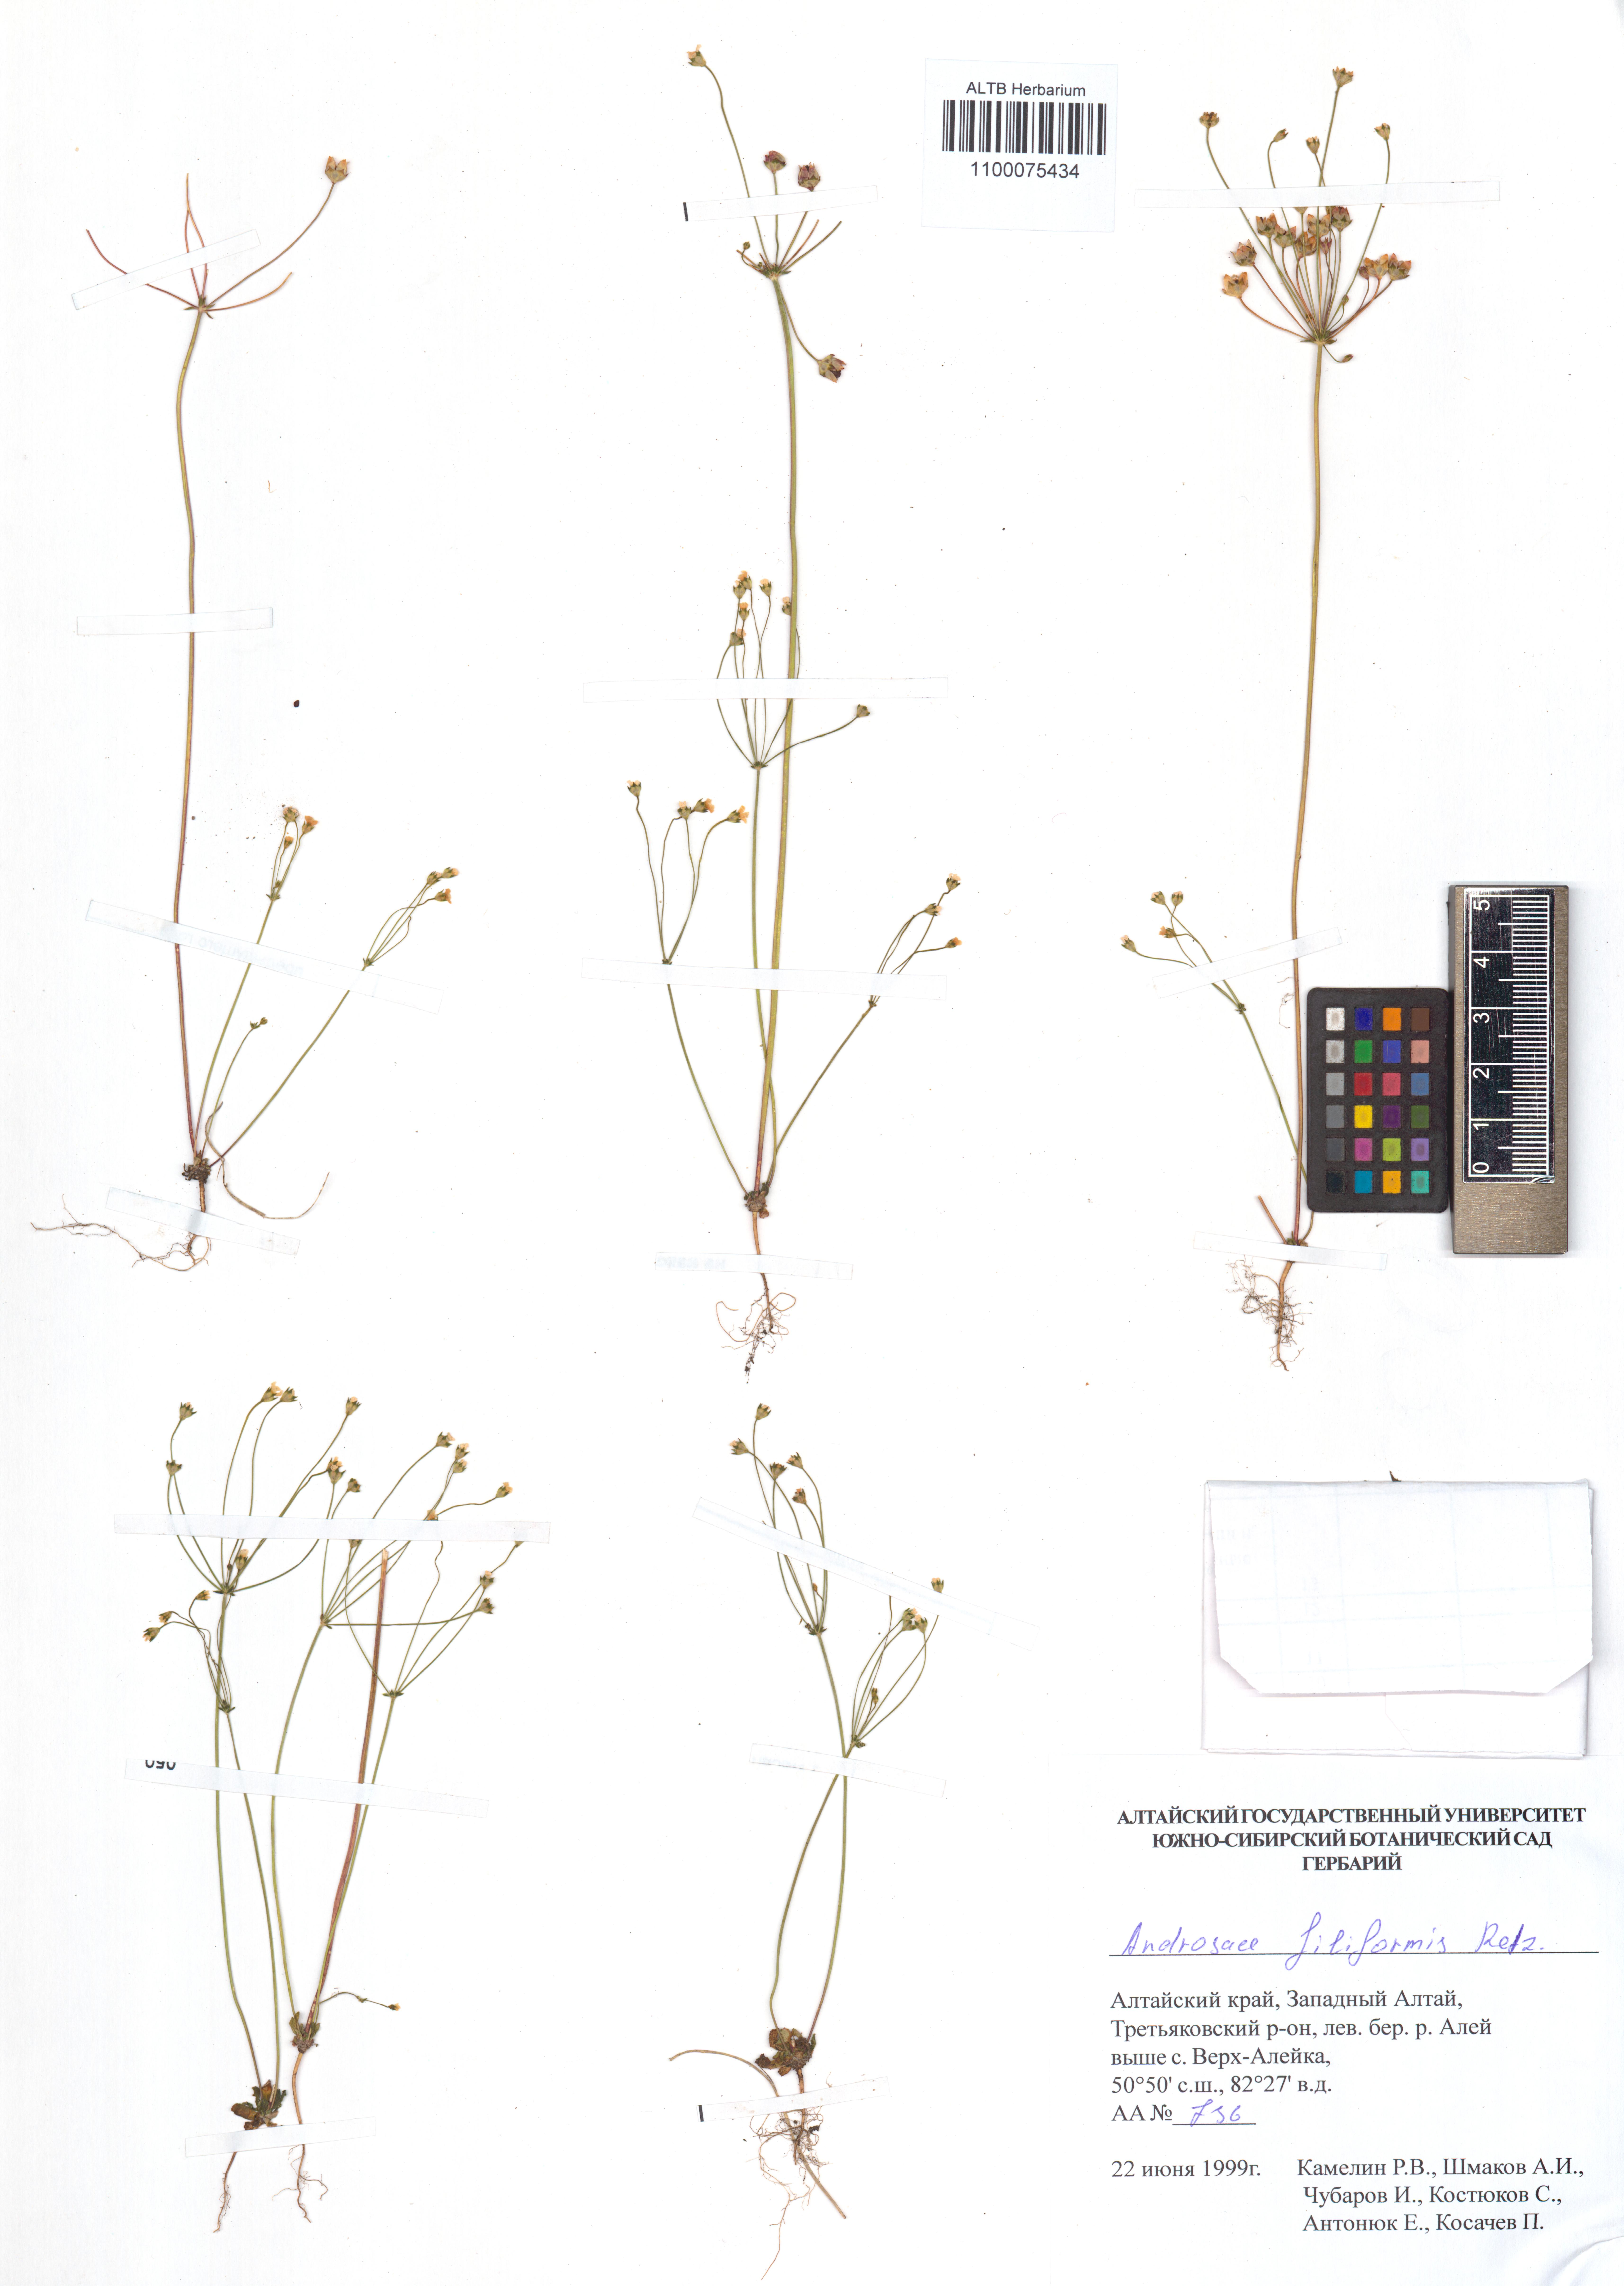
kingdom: Plantae
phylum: Tracheophyta
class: Magnoliopsida
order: Ericales
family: Primulaceae
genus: Androsace
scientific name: Androsace filiformis
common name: Filiform rock jasmine
